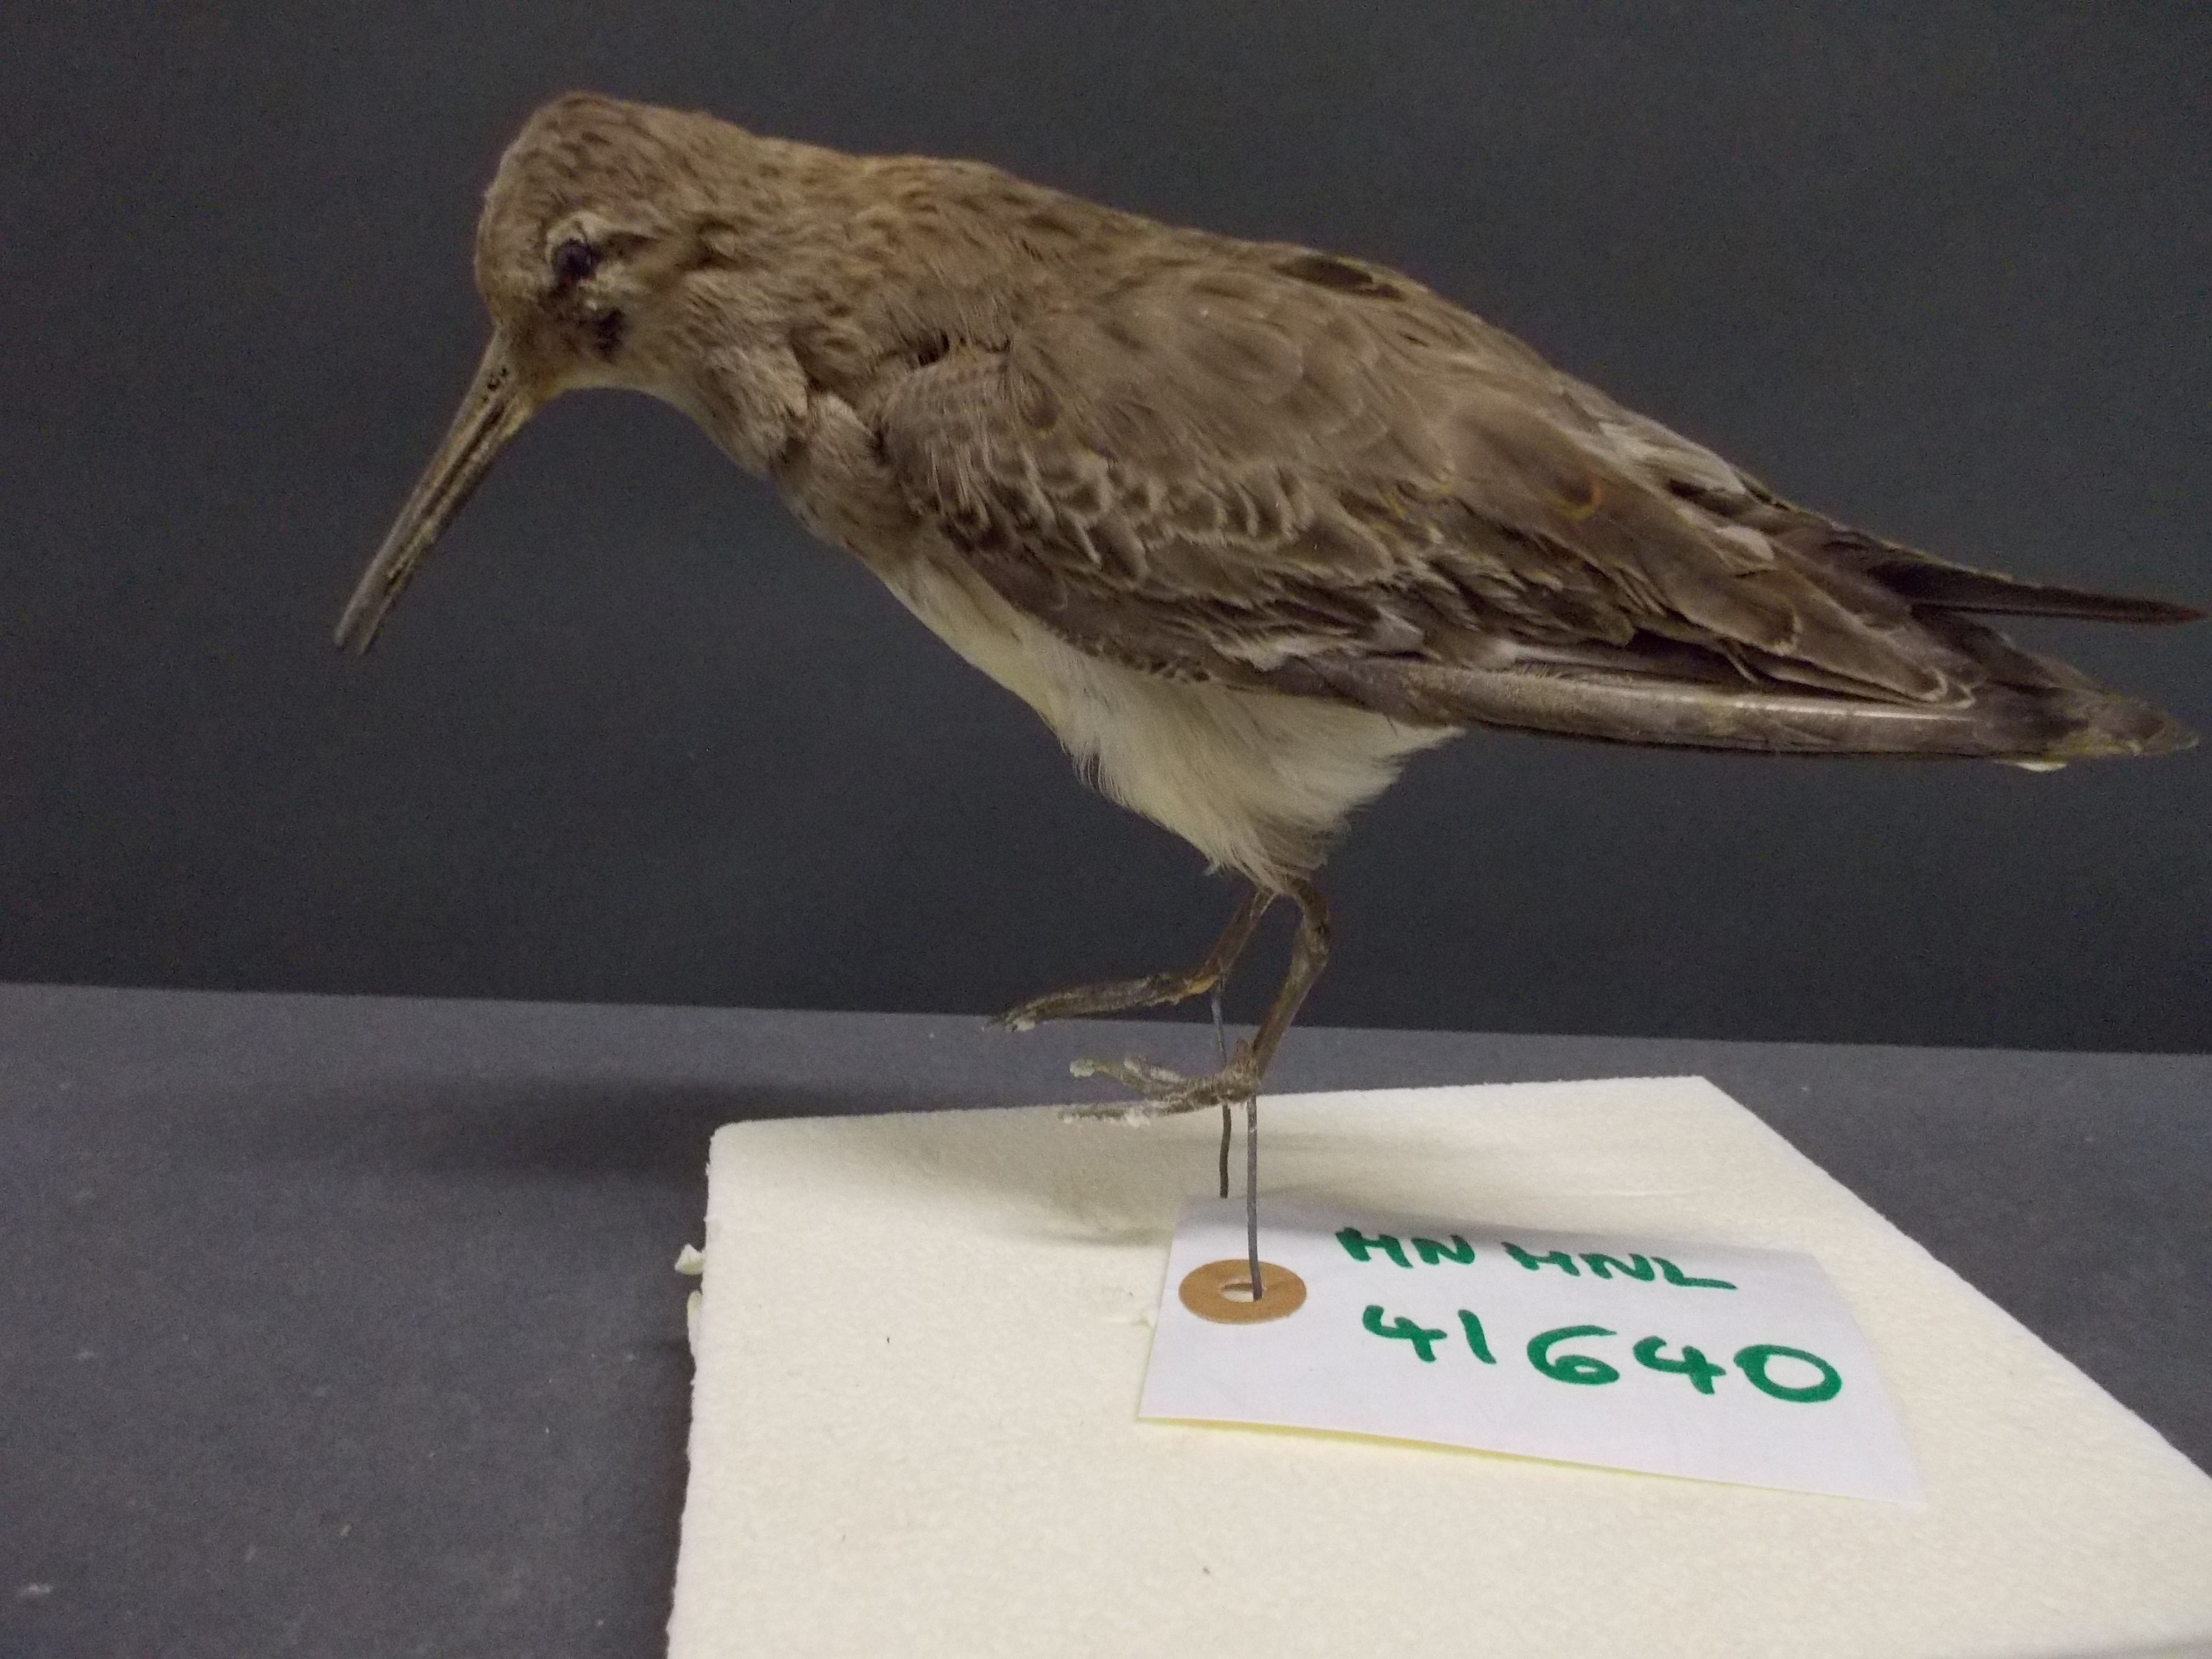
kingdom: Animalia
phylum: Chordata
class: Aves
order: Charadriiformes
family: Scolopacidae
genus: Calidris
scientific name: Calidris alpina
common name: Dunlin
